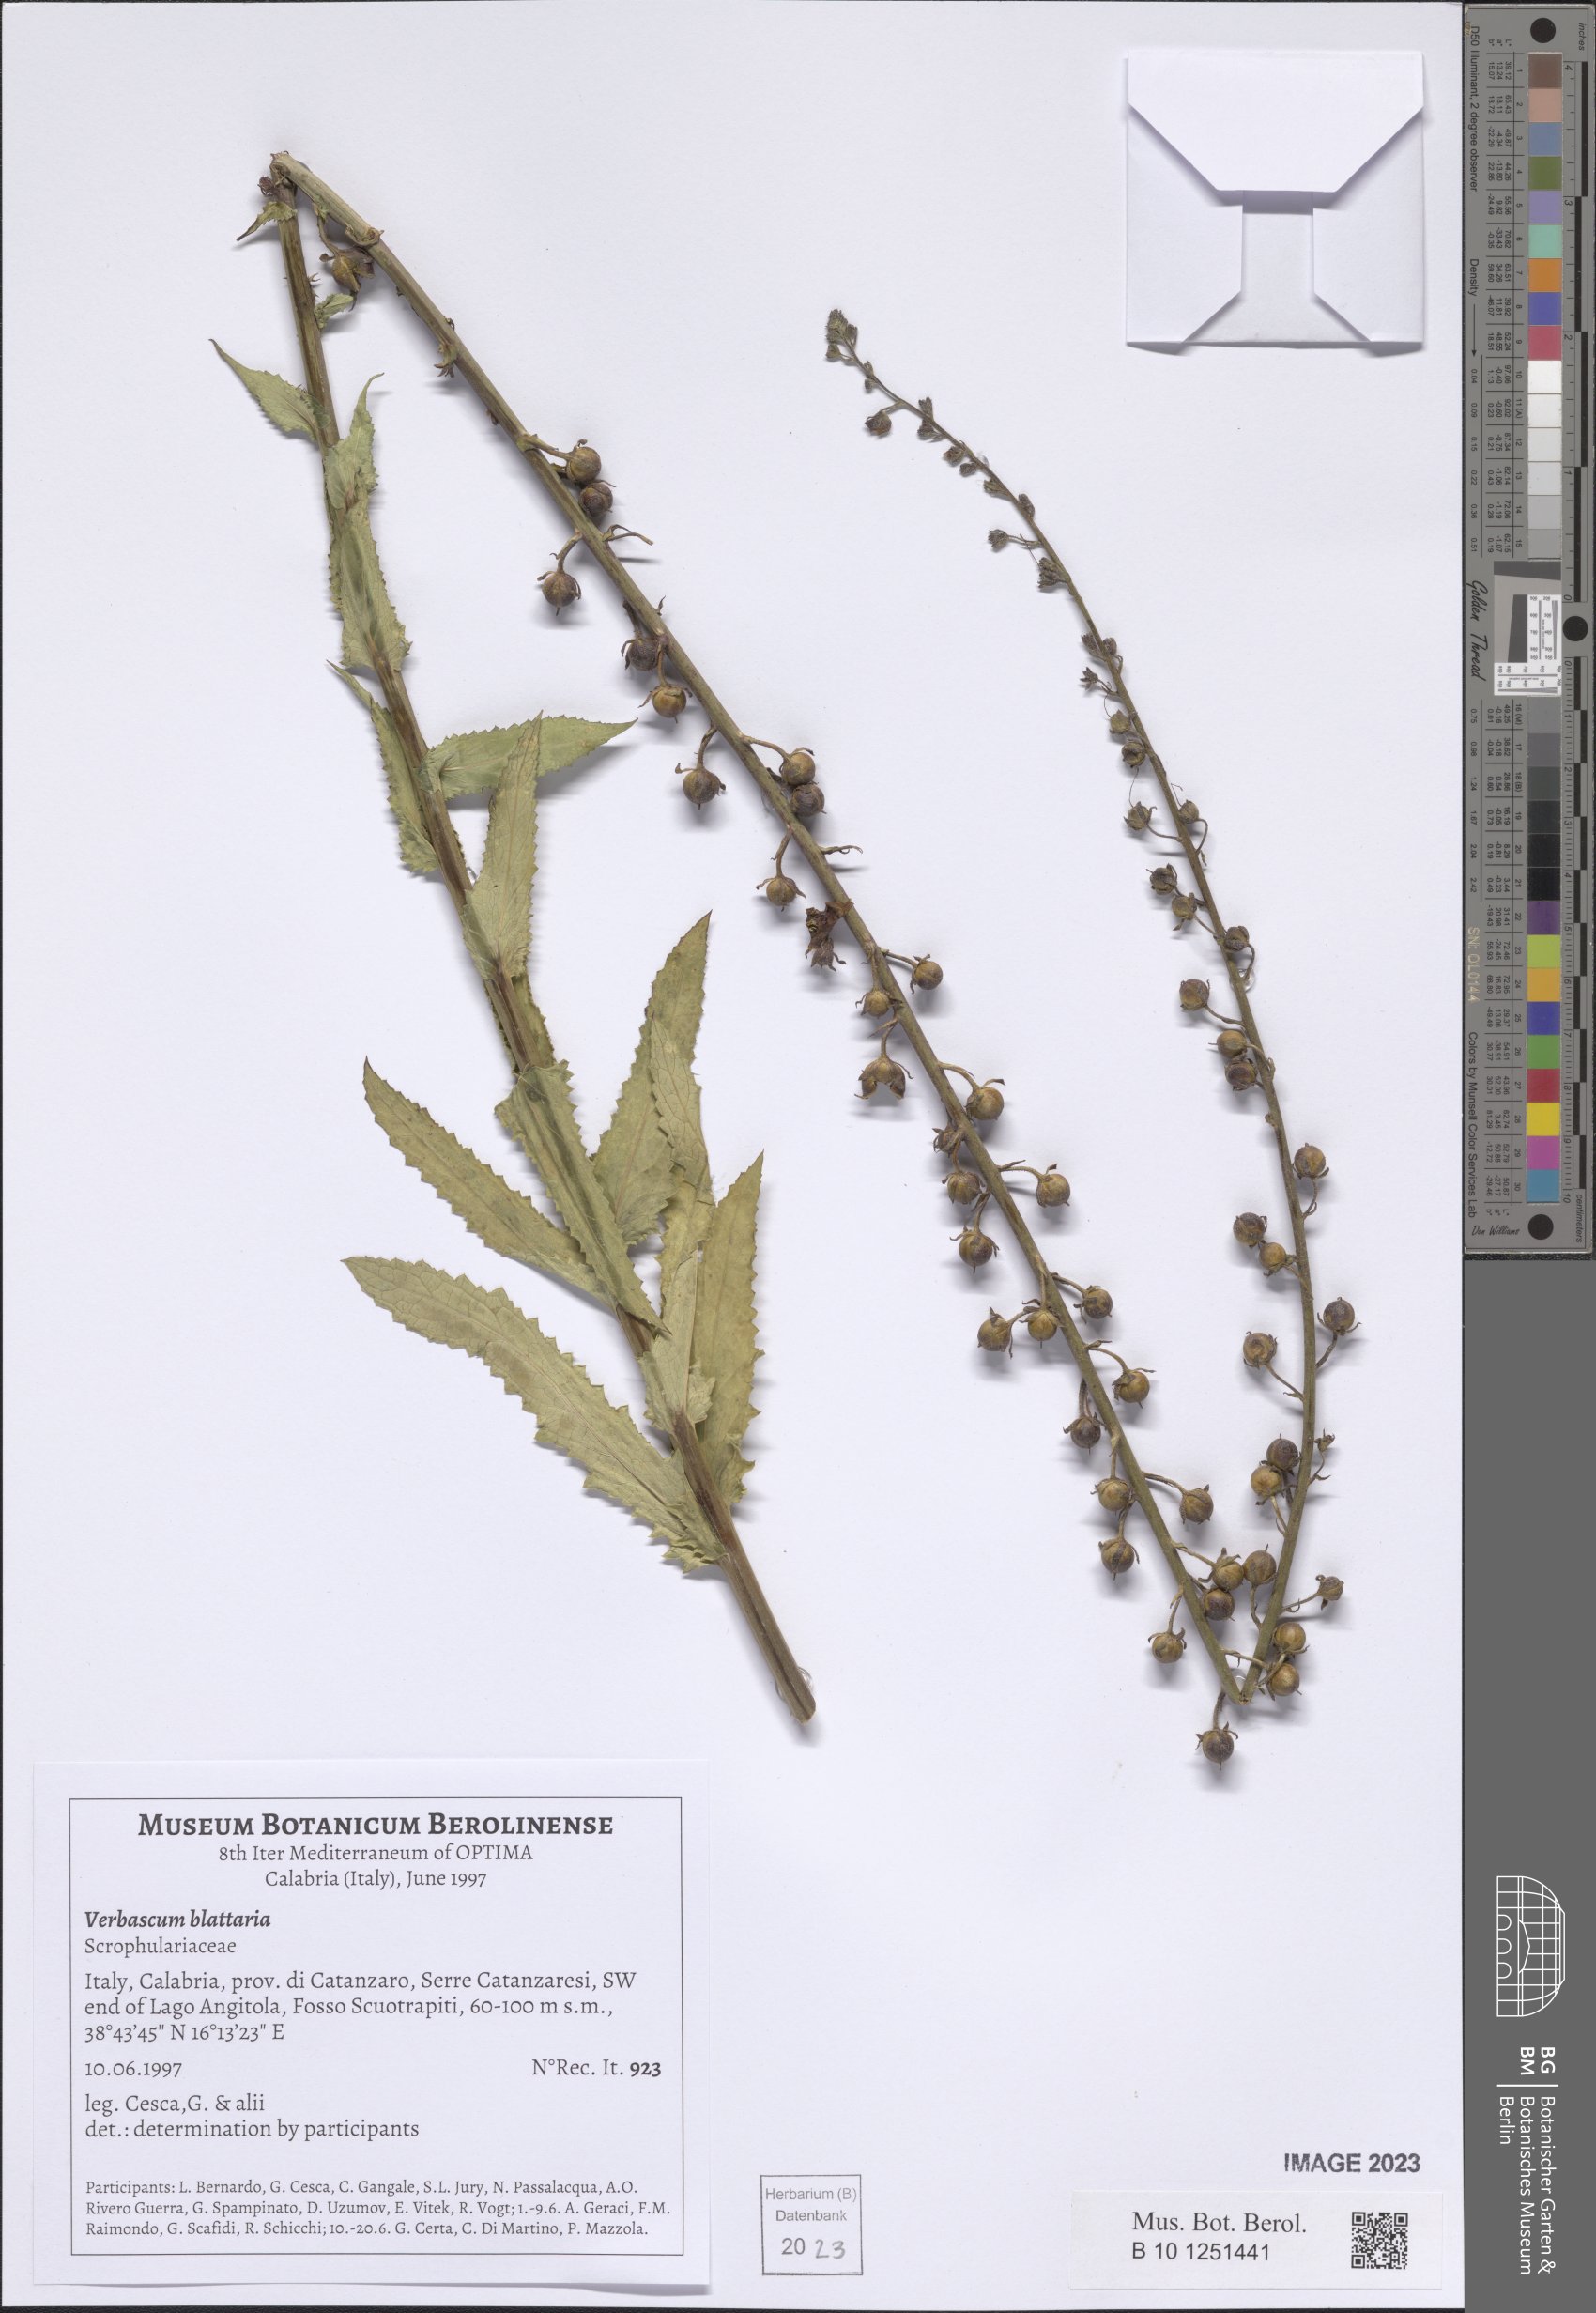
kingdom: Plantae
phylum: Tracheophyta
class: Magnoliopsida
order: Lamiales
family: Scrophulariaceae
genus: Verbascum
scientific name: Verbascum blattaria
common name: Moth mullein
